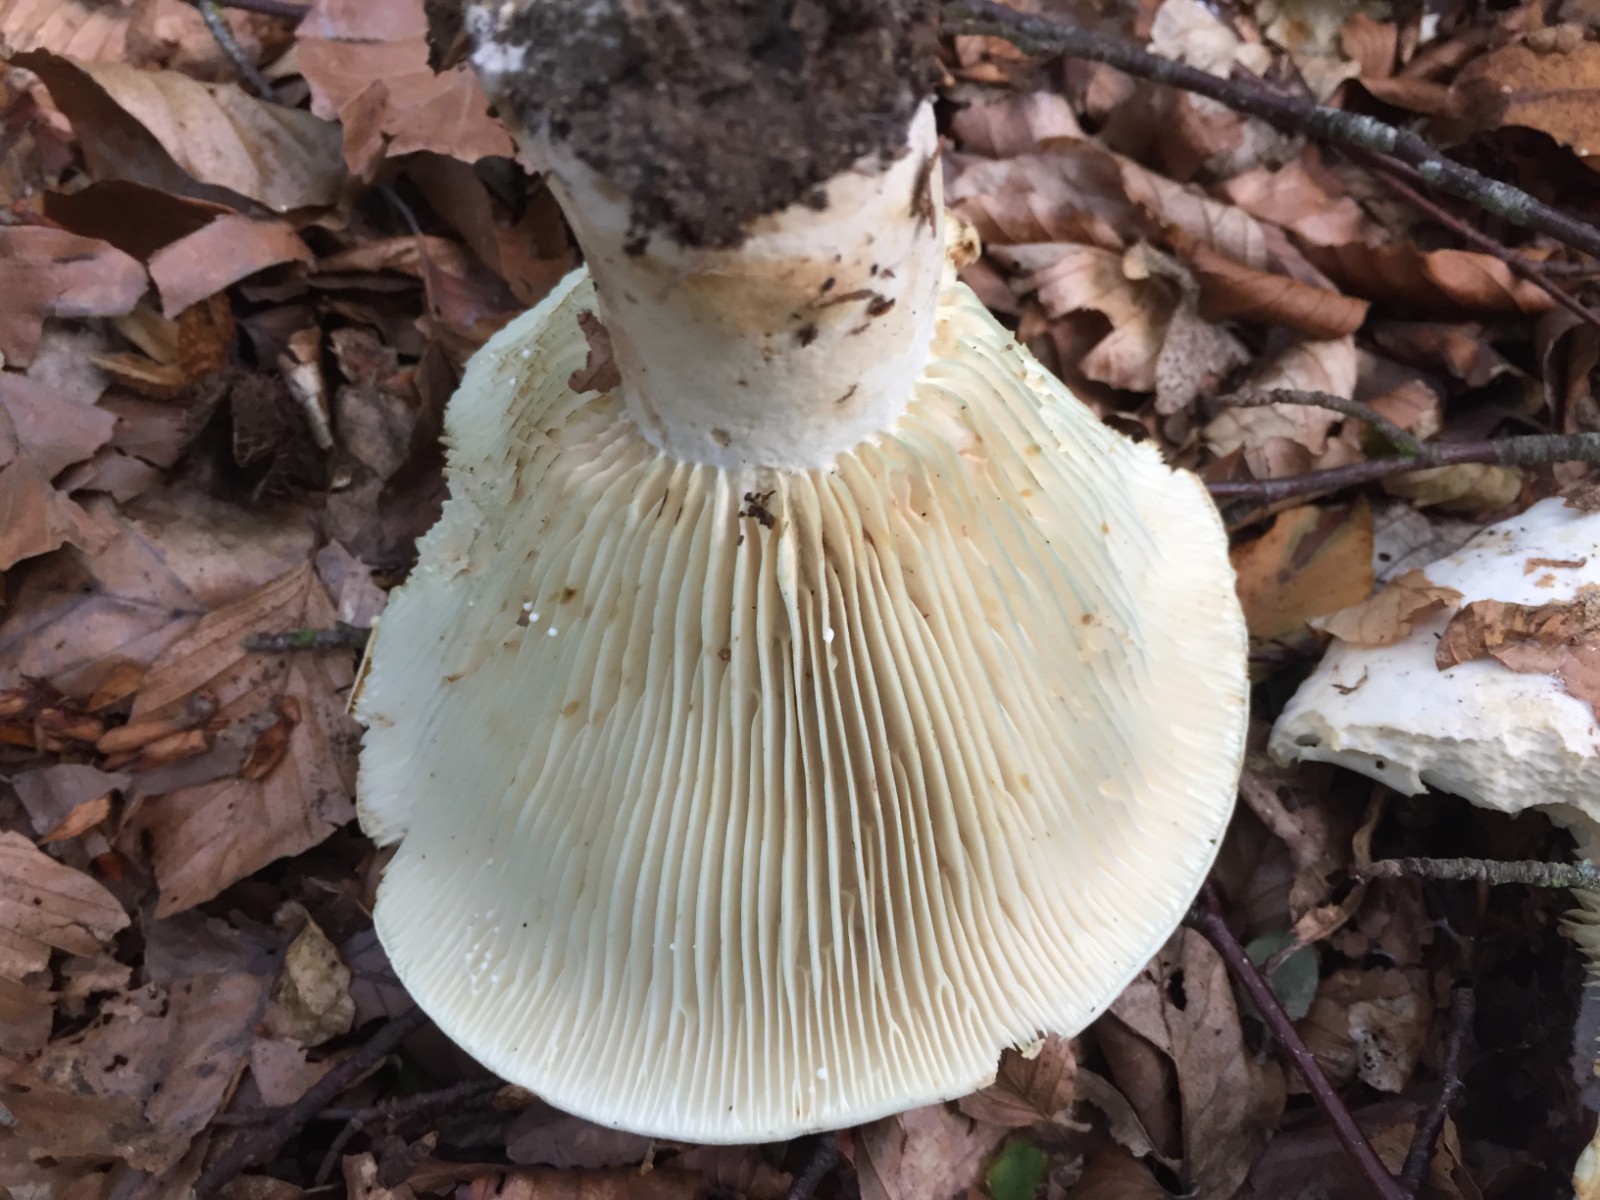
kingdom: Fungi
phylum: Basidiomycota
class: Agaricomycetes
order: Russulales
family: Russulaceae
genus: Russula
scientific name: Russula chloroides
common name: grønhalset tragt-skørhat
